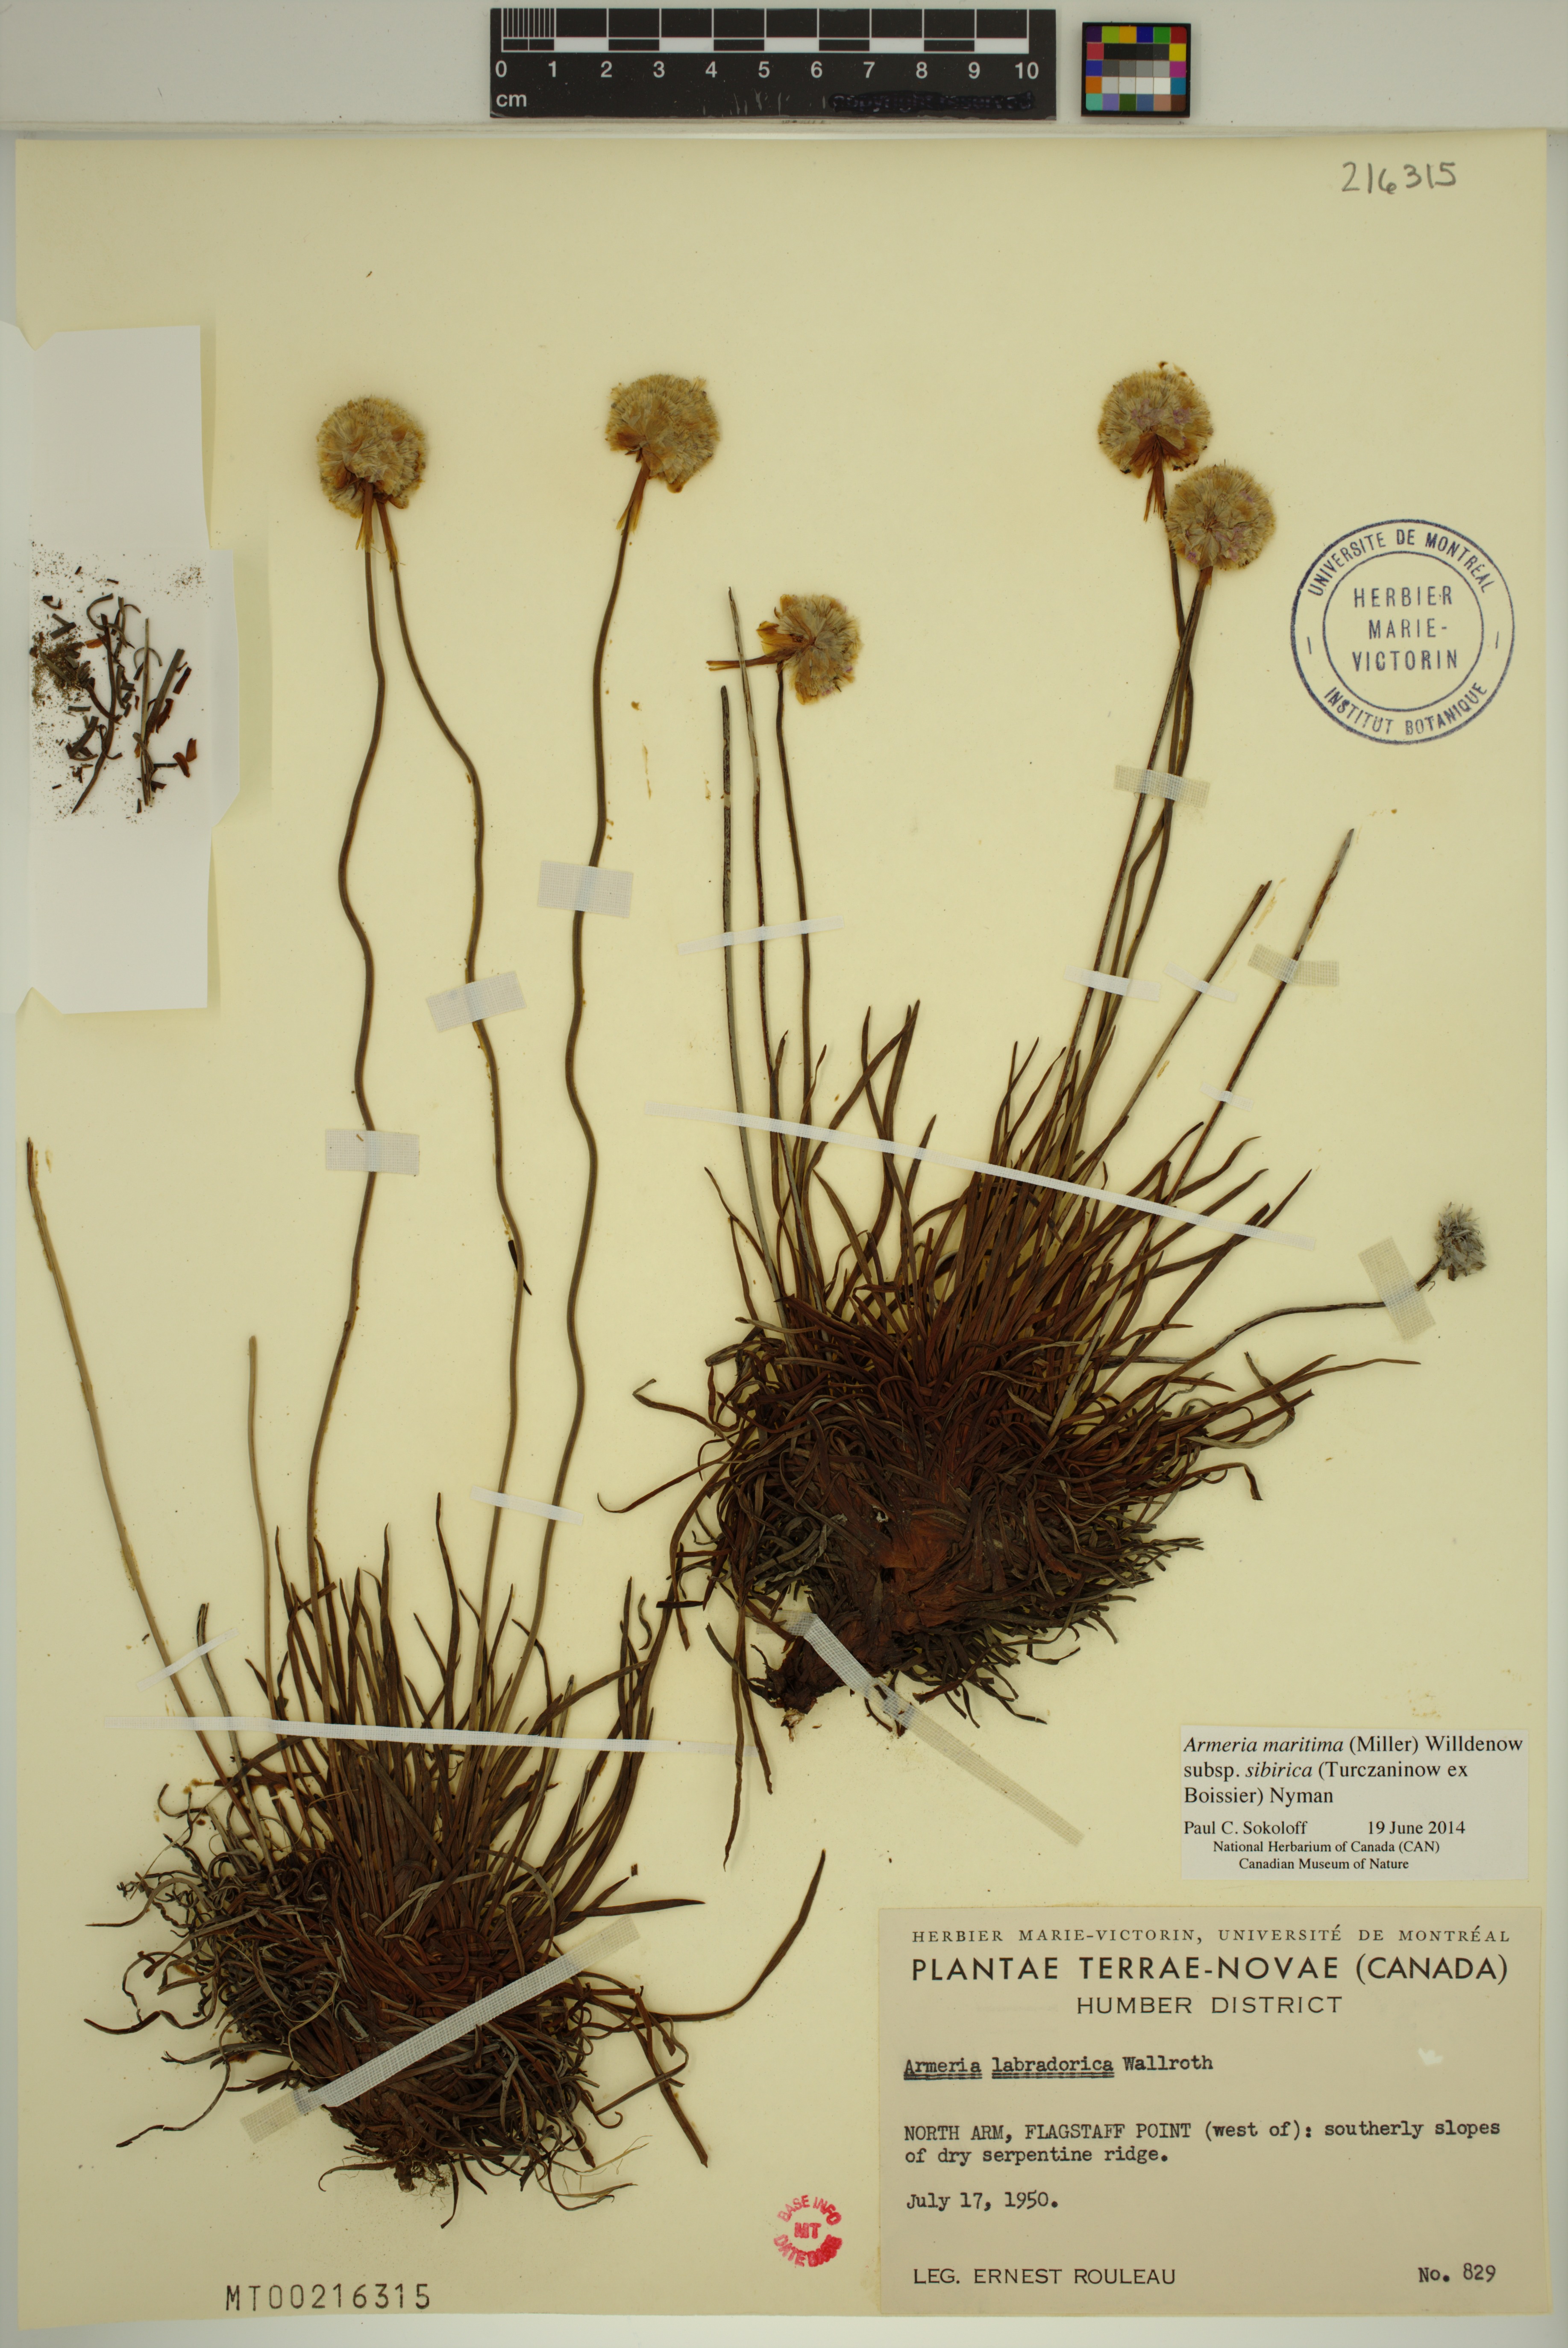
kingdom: Plantae
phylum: Tracheophyta
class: Magnoliopsida
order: Caryophyllales
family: Plumbaginaceae
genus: Armeria
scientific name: Armeria maritima
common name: Thrift
